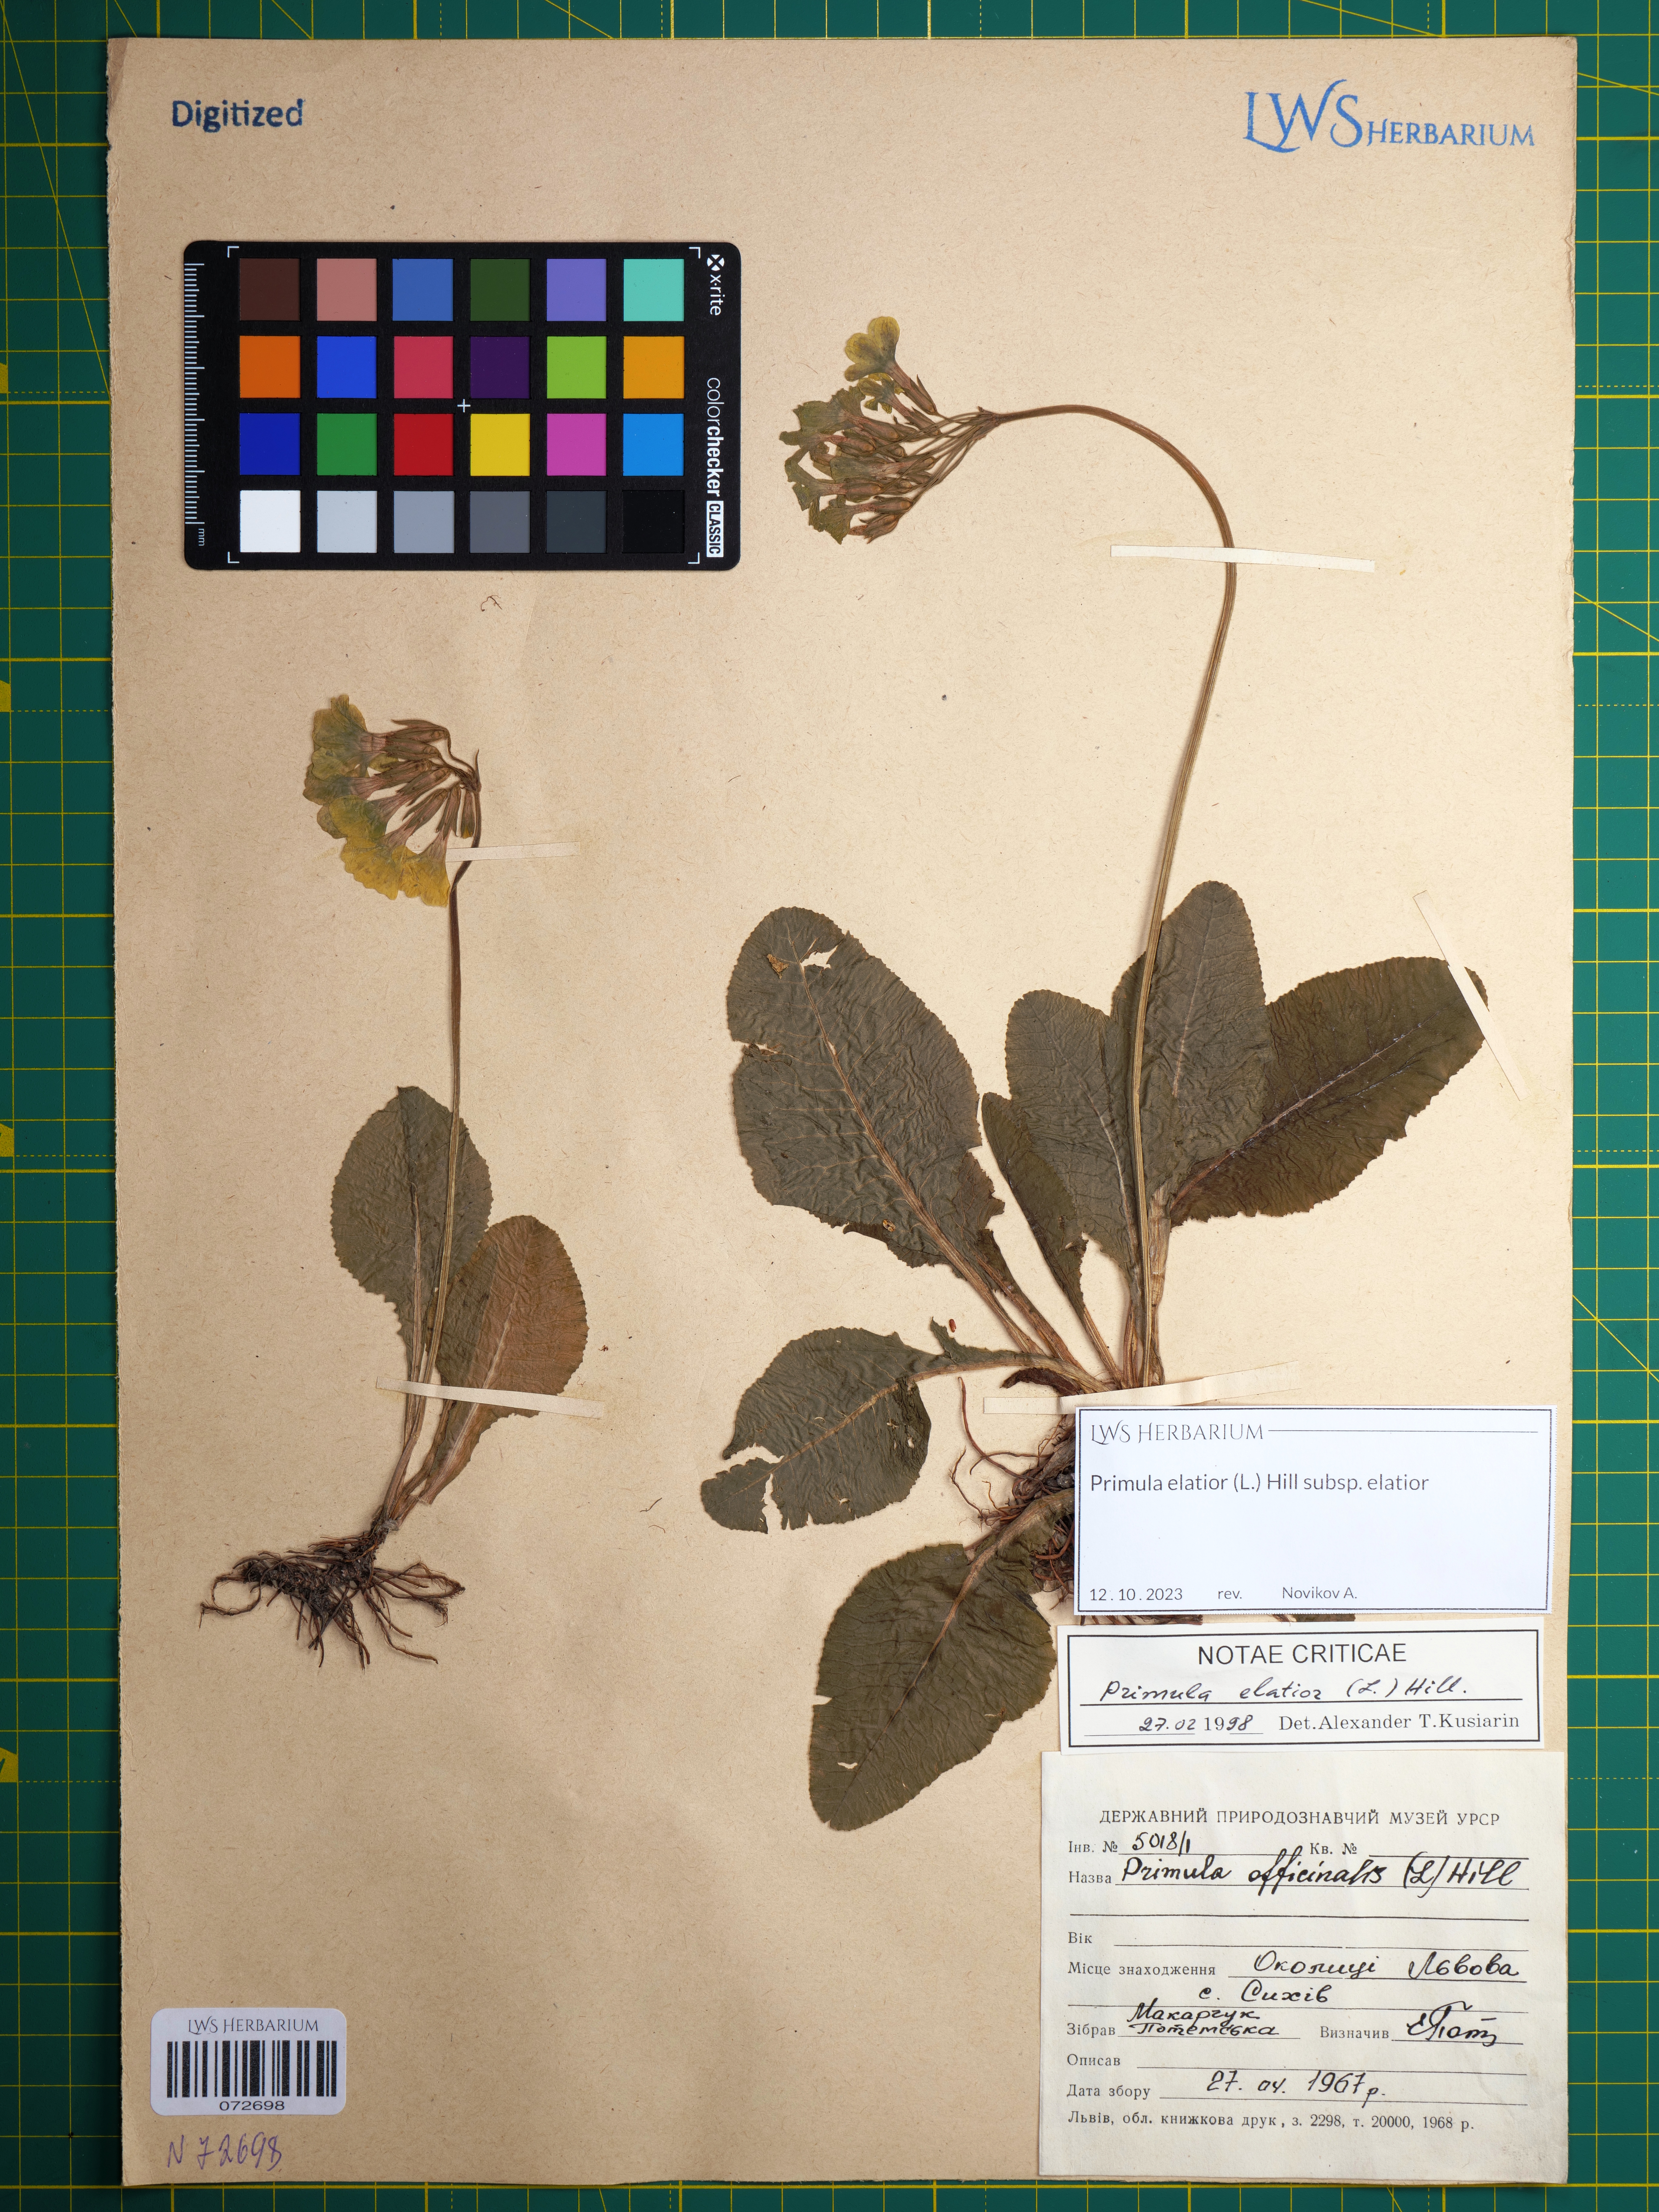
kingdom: Plantae
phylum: Tracheophyta
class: Magnoliopsida
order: Ericales
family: Primulaceae
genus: Primula
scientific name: Primula elatior
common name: Oxlip
